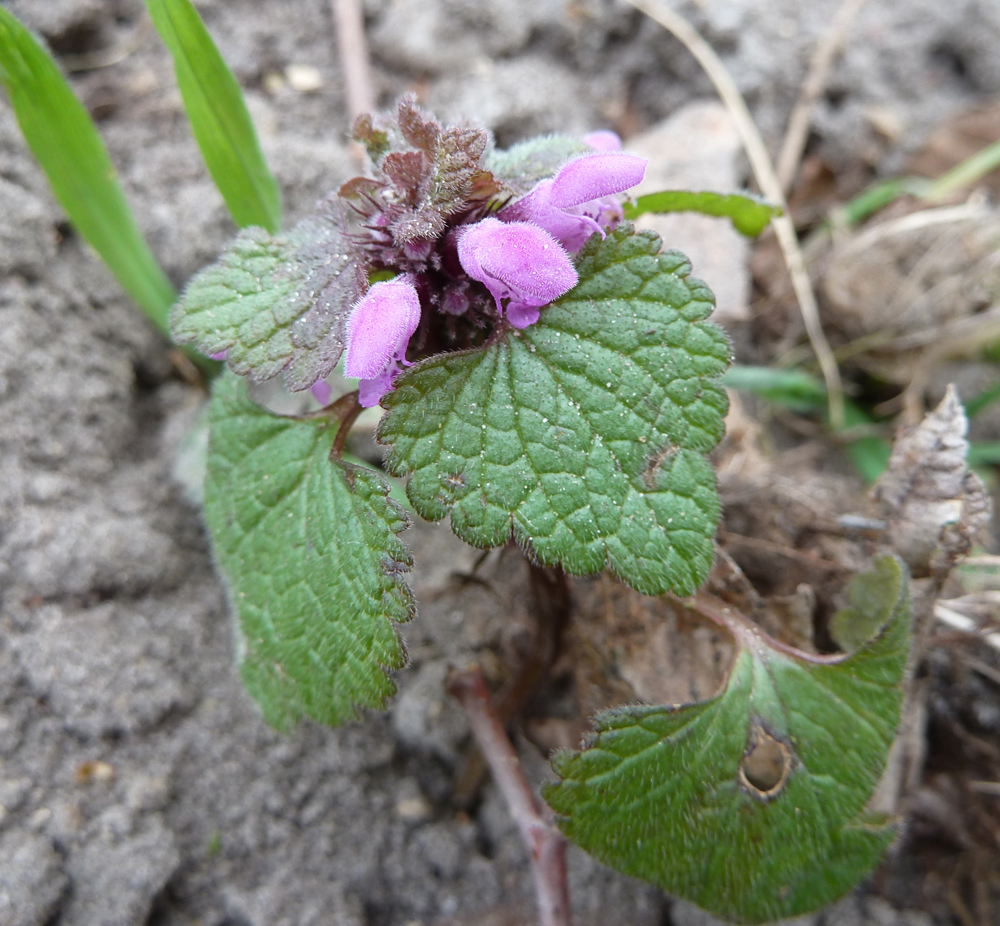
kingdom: Plantae
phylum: Tracheophyta
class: Magnoliopsida
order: Lamiales
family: Lamiaceae
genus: Lamium
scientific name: Lamium purpureum
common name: Red dead-nettle
